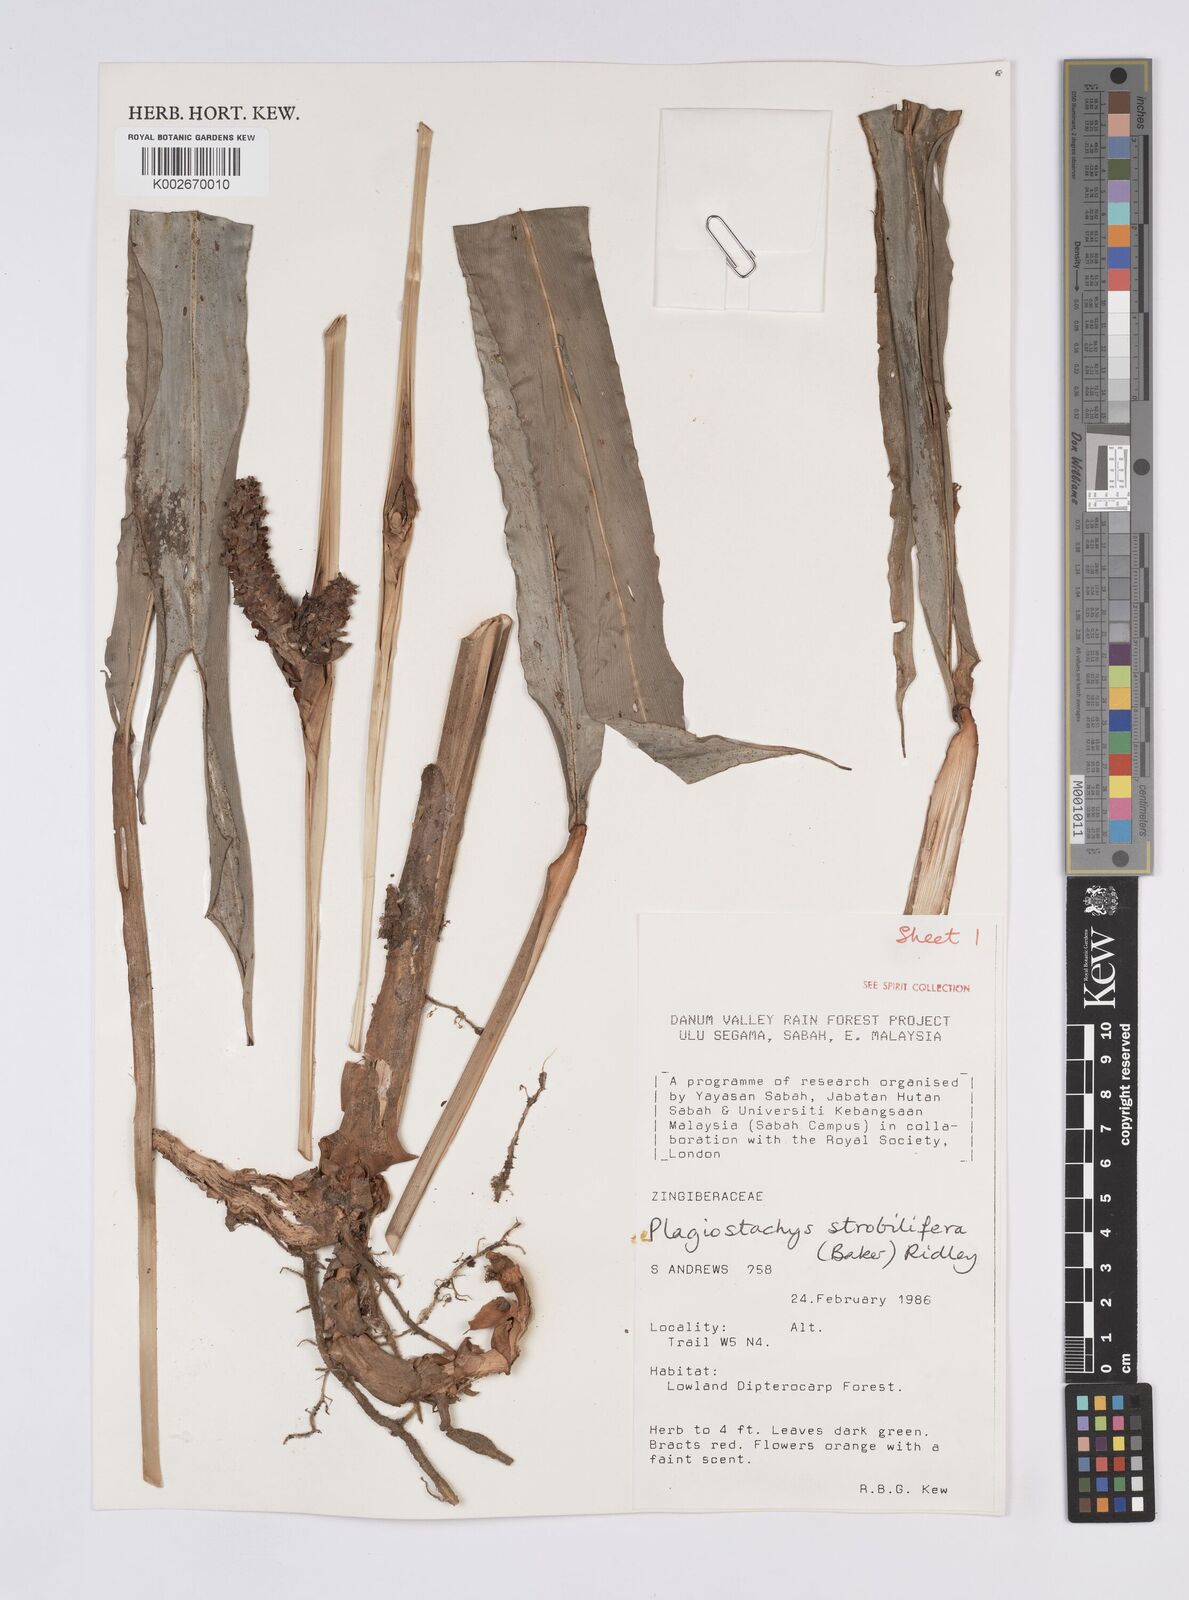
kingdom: Plantae
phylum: Tracheophyta
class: Liliopsida
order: Zingiberales
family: Zingiberaceae
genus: Plagiostachys
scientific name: Plagiostachys strobilifera
